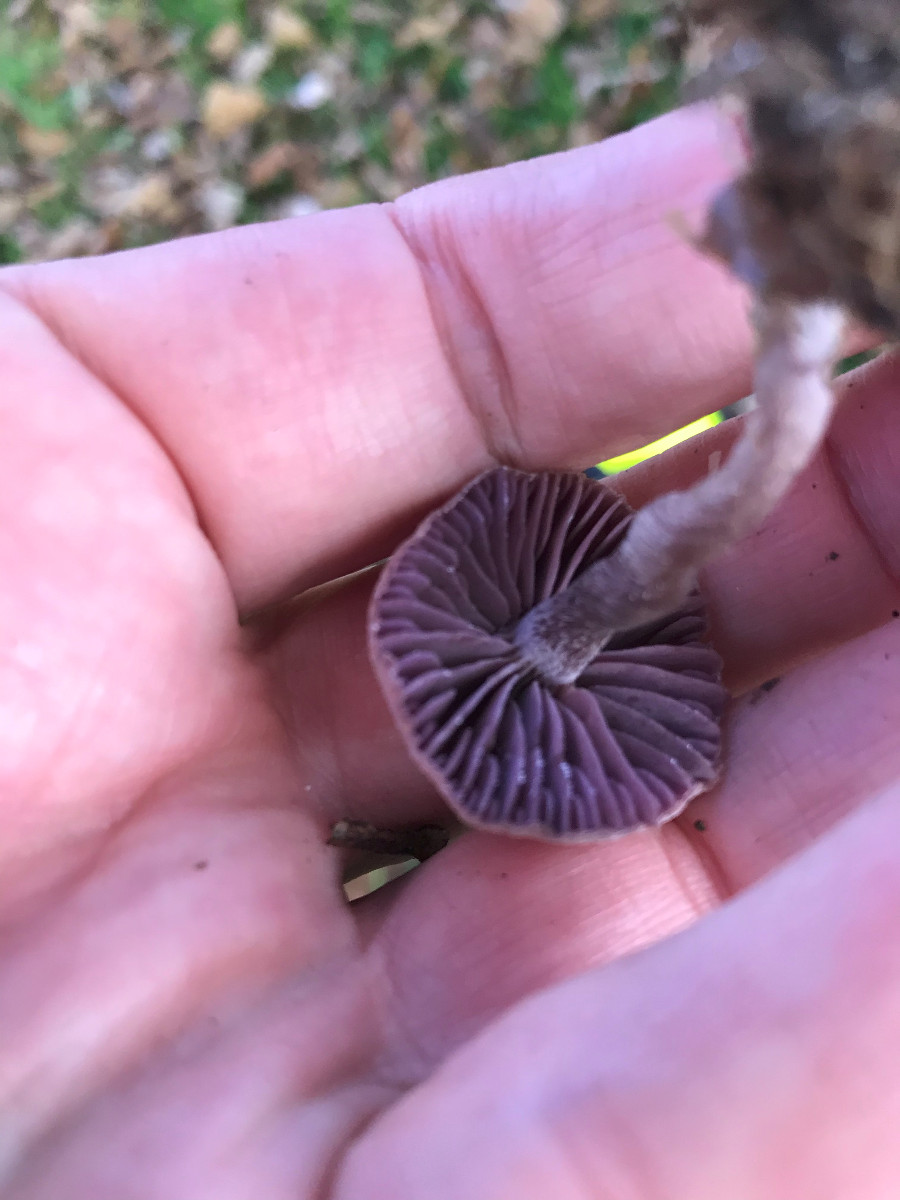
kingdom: Fungi
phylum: Basidiomycota
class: Agaricomycetes
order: Agaricales
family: Hydnangiaceae
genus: Laccaria
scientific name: Laccaria amethystina
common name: violet ametysthat
